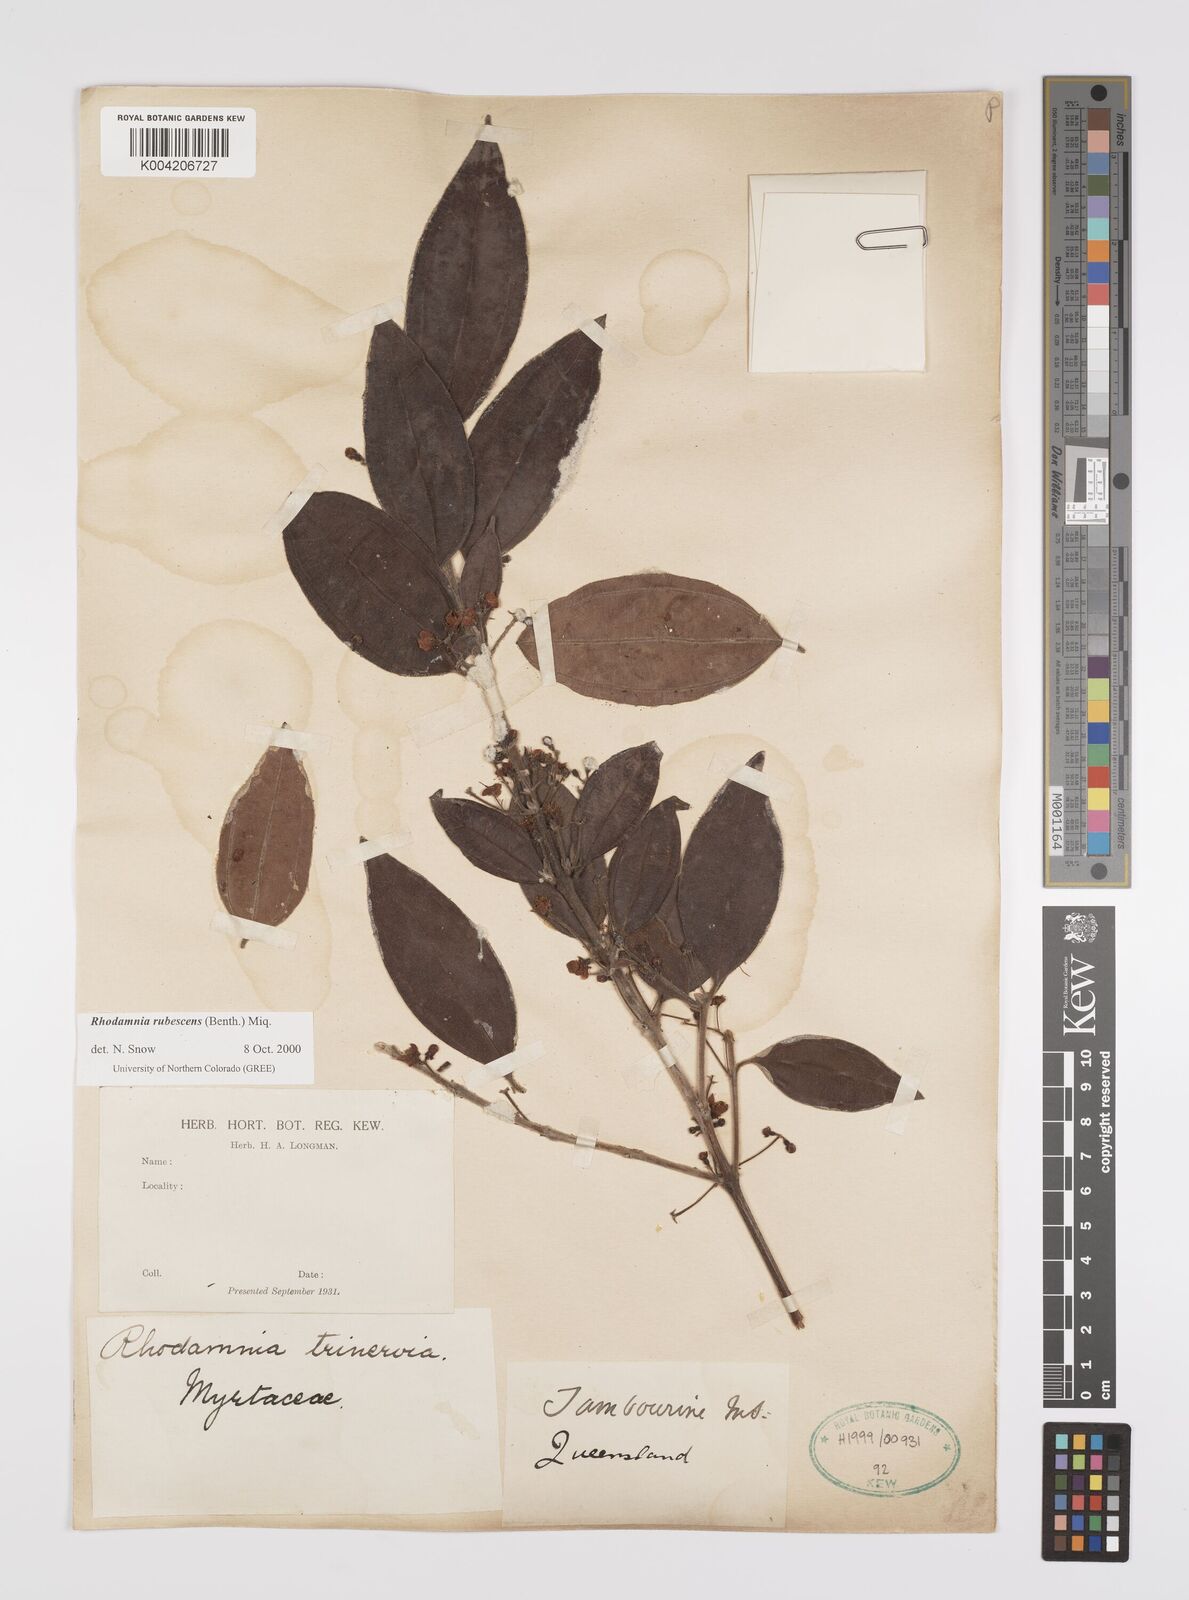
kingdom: Plantae
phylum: Tracheophyta
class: Magnoliopsida
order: Myrtales
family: Myrtaceae
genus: Rhodamnia
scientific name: Rhodamnia rubescens
